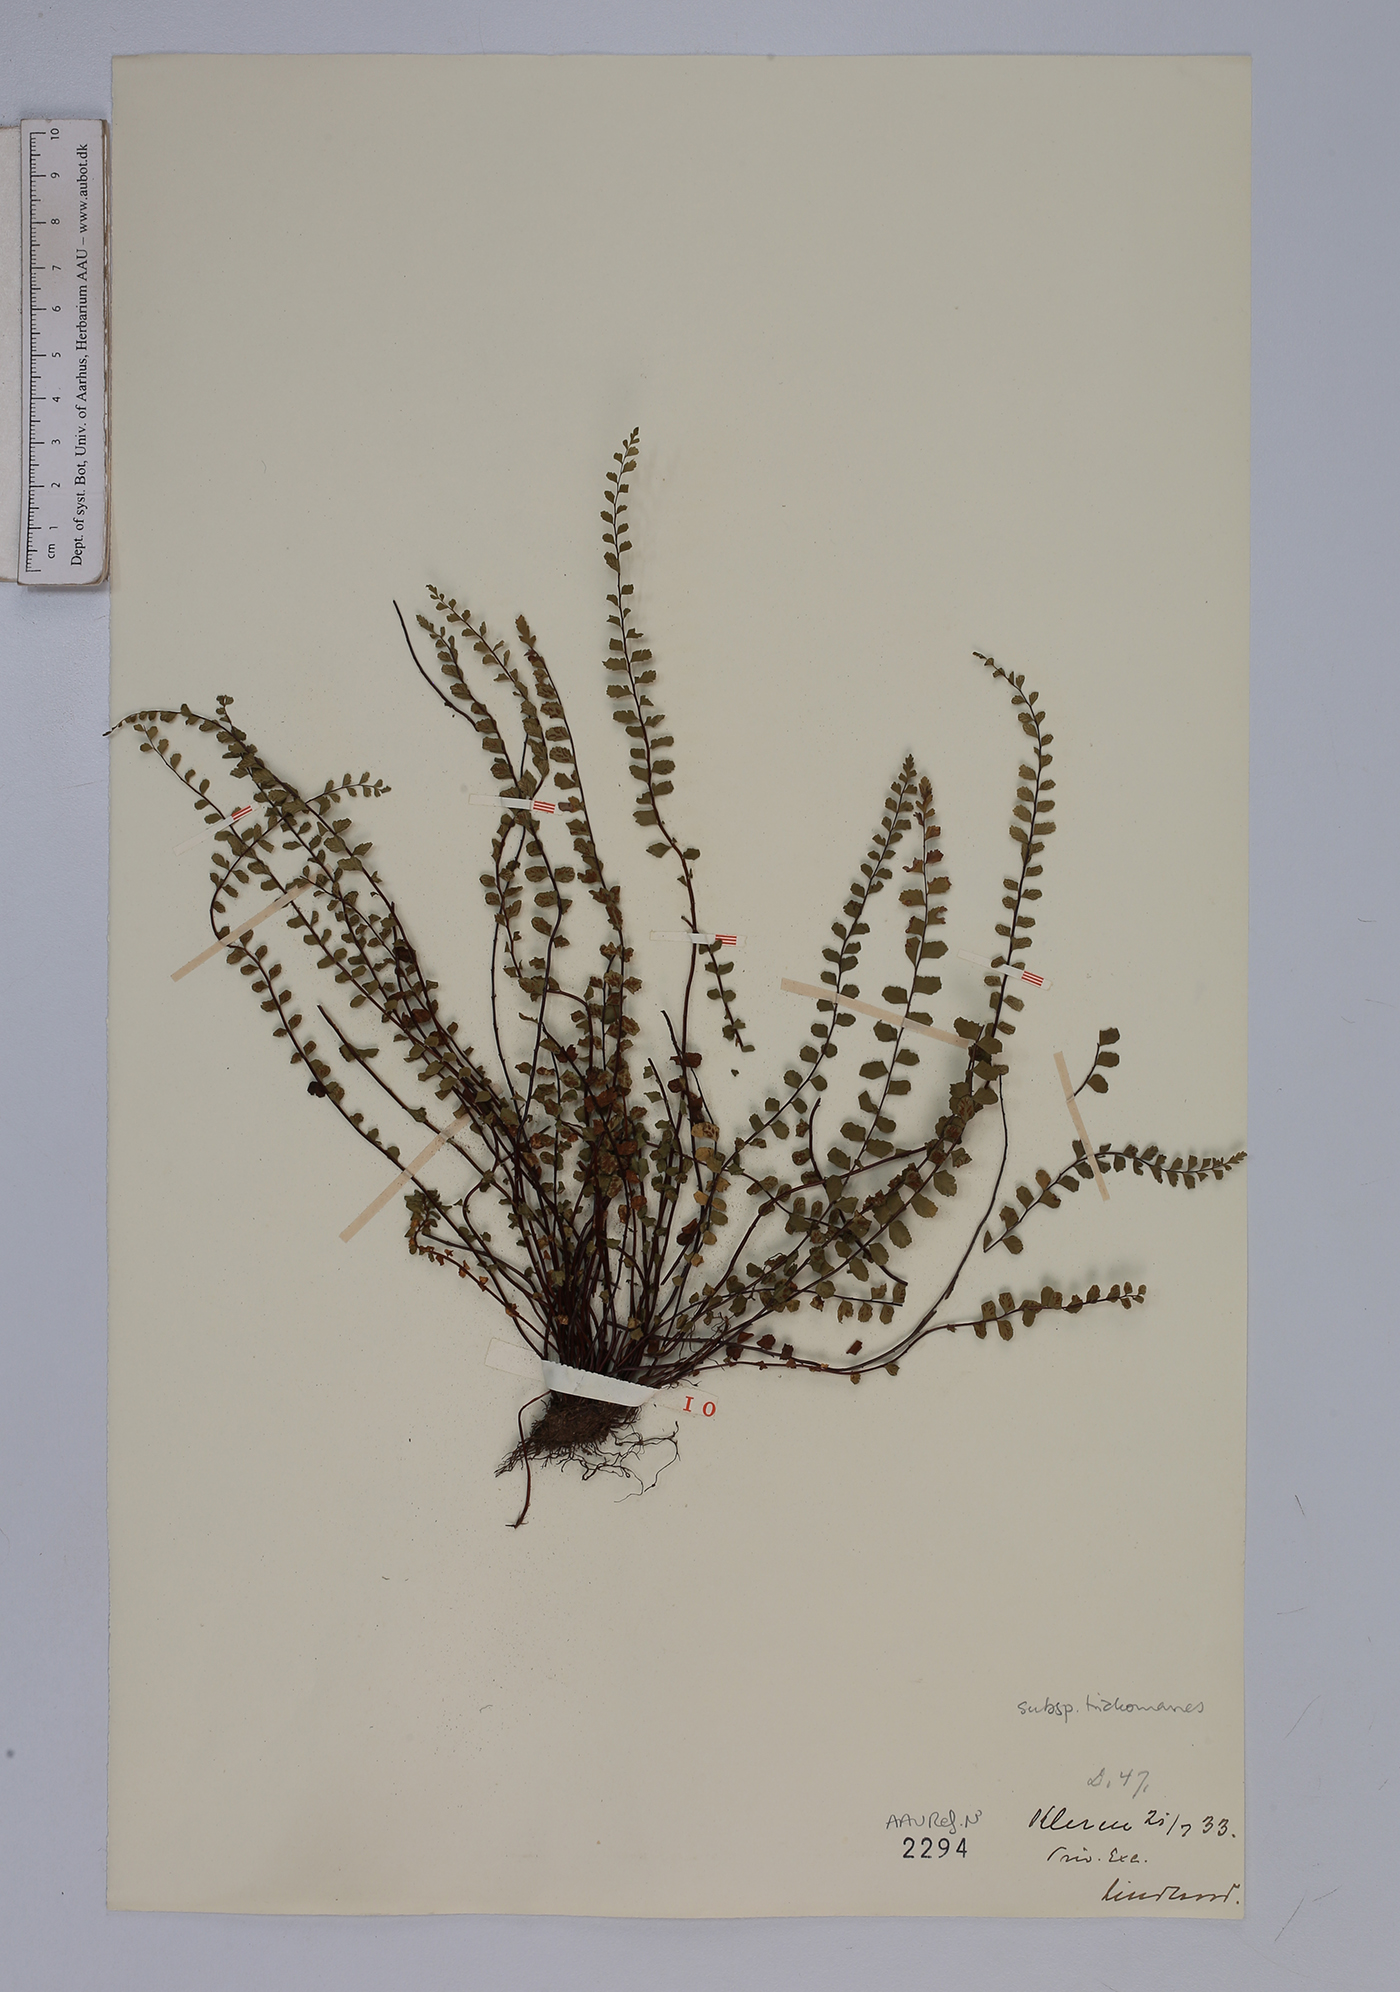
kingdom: Plantae
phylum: Tracheophyta
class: Polypodiopsida
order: Polypodiales
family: Aspleniaceae
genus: Asplenium
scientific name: Asplenium trichomanes
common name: Maidenhair spleenwort
